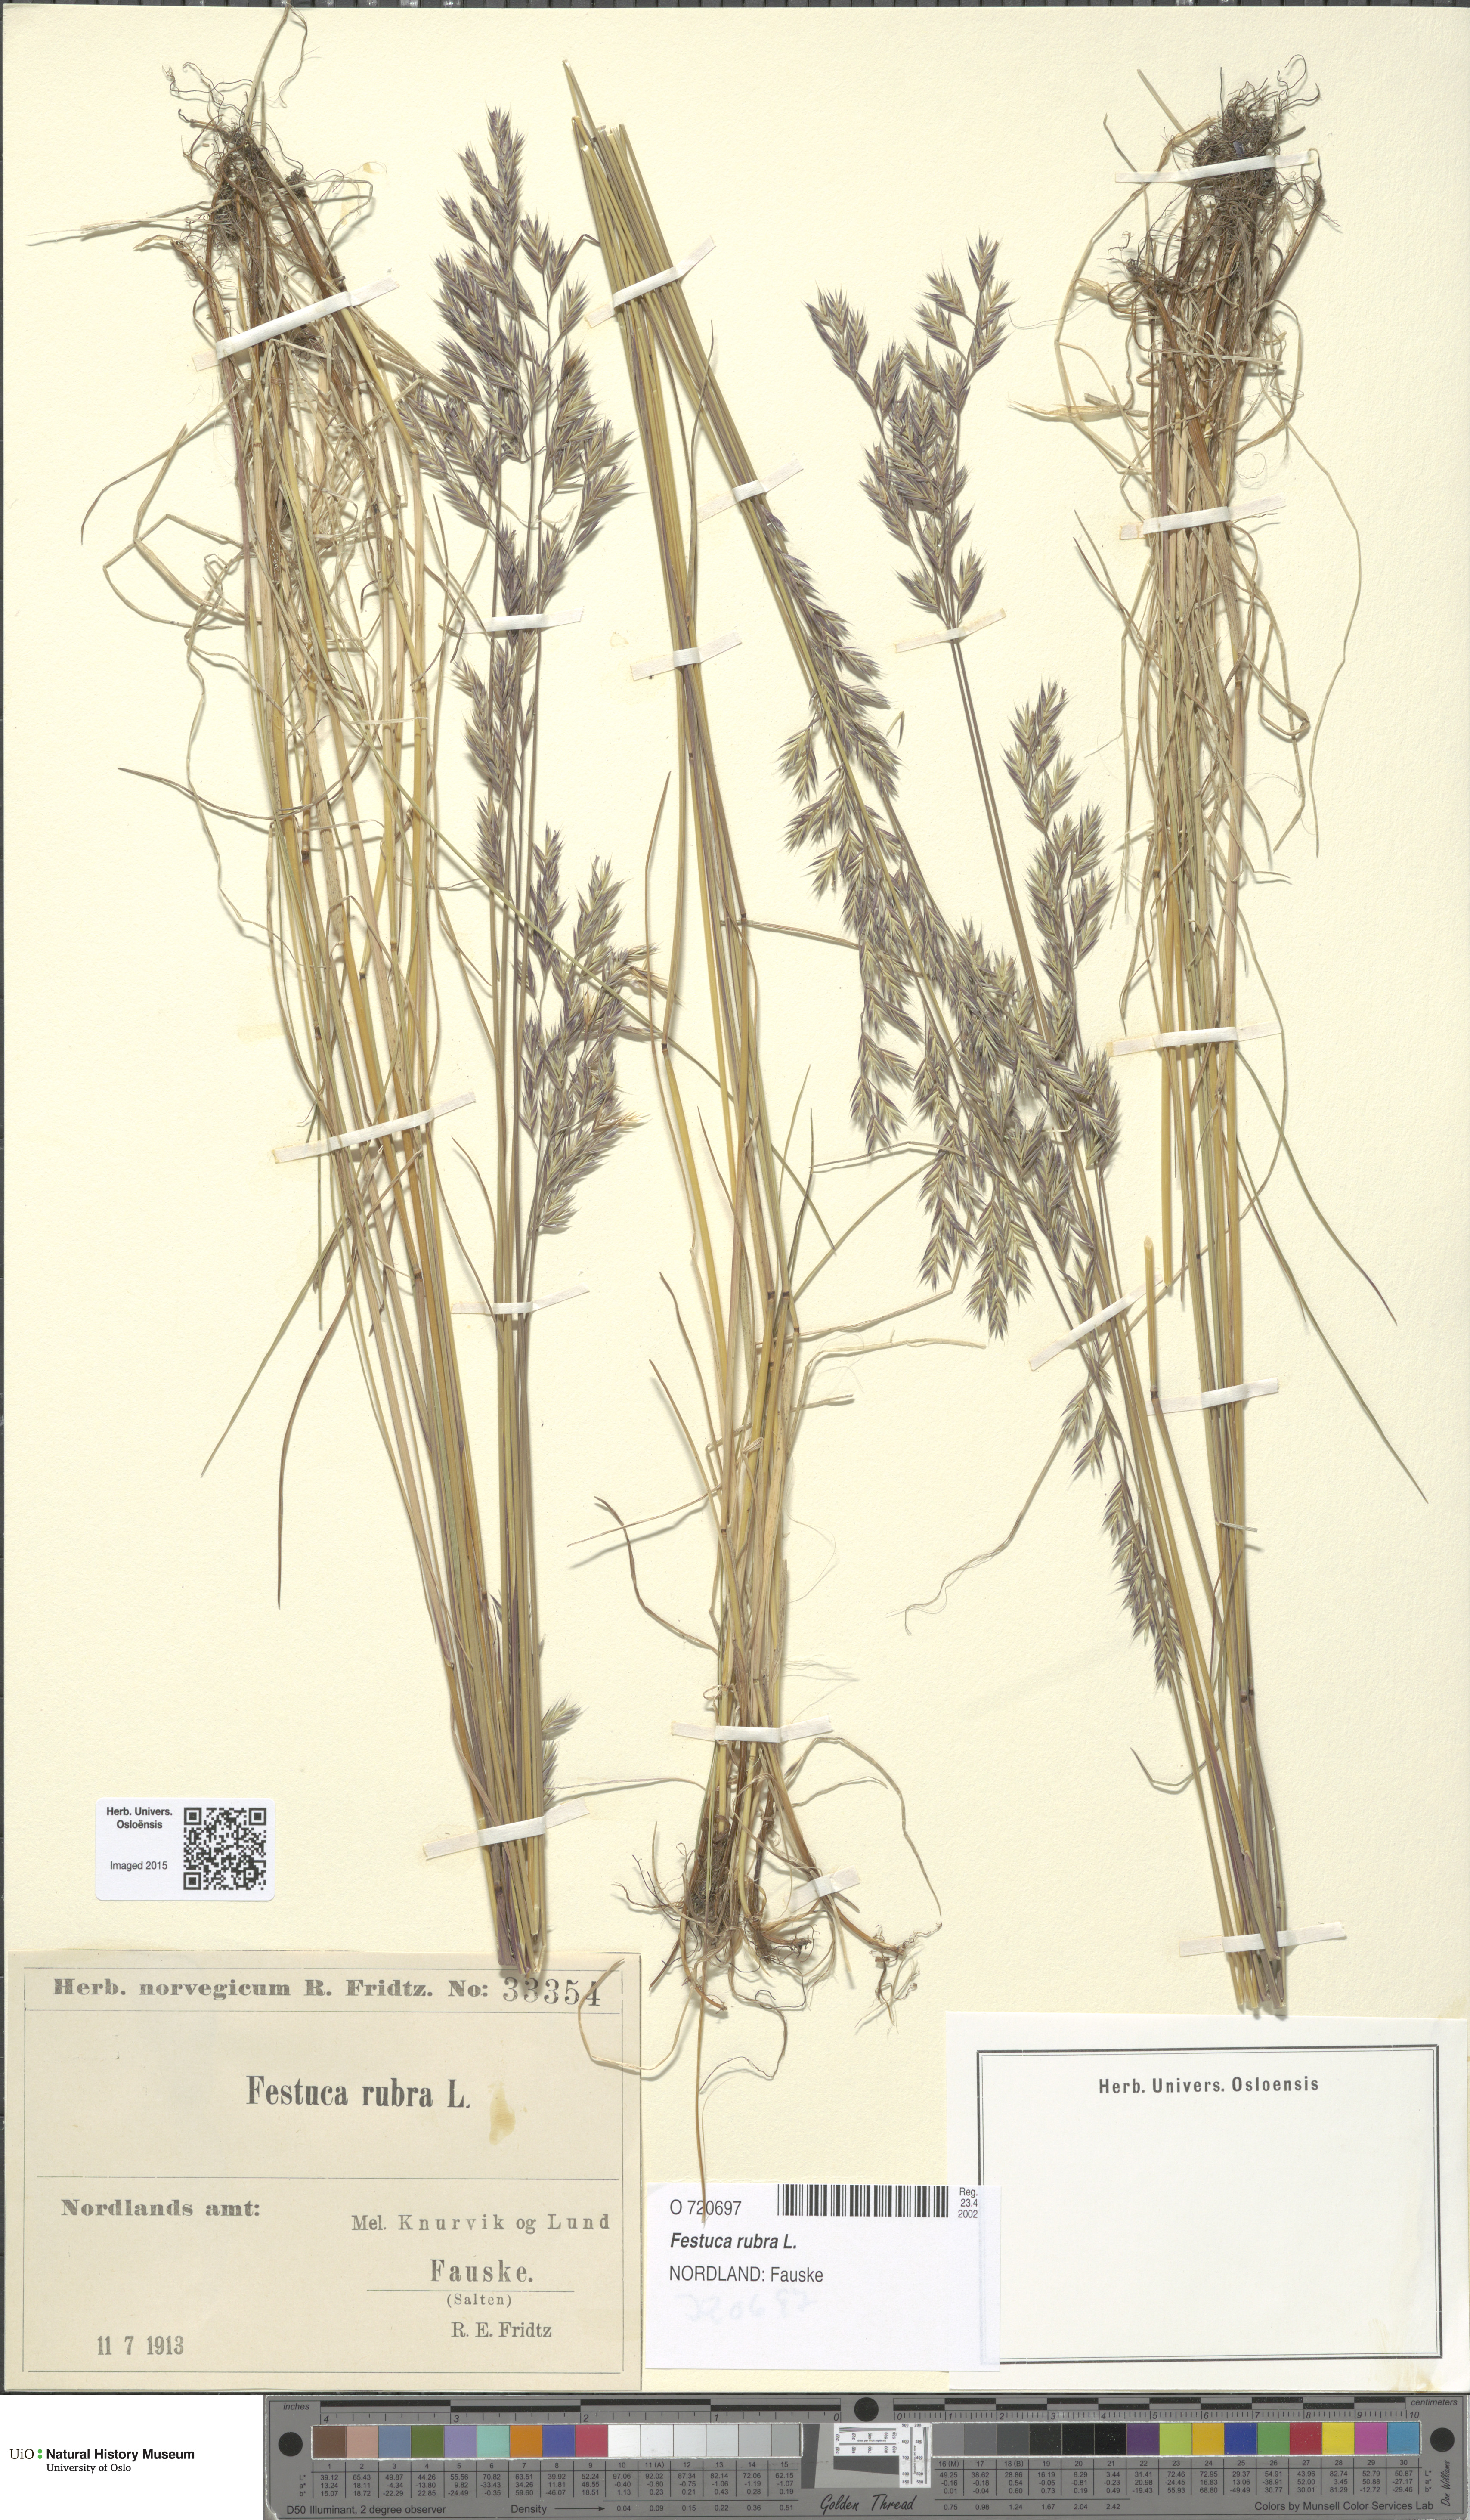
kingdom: Plantae
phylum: Tracheophyta
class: Liliopsida
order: Poales
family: Poaceae
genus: Festuca
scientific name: Festuca rubra
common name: Red fescue
